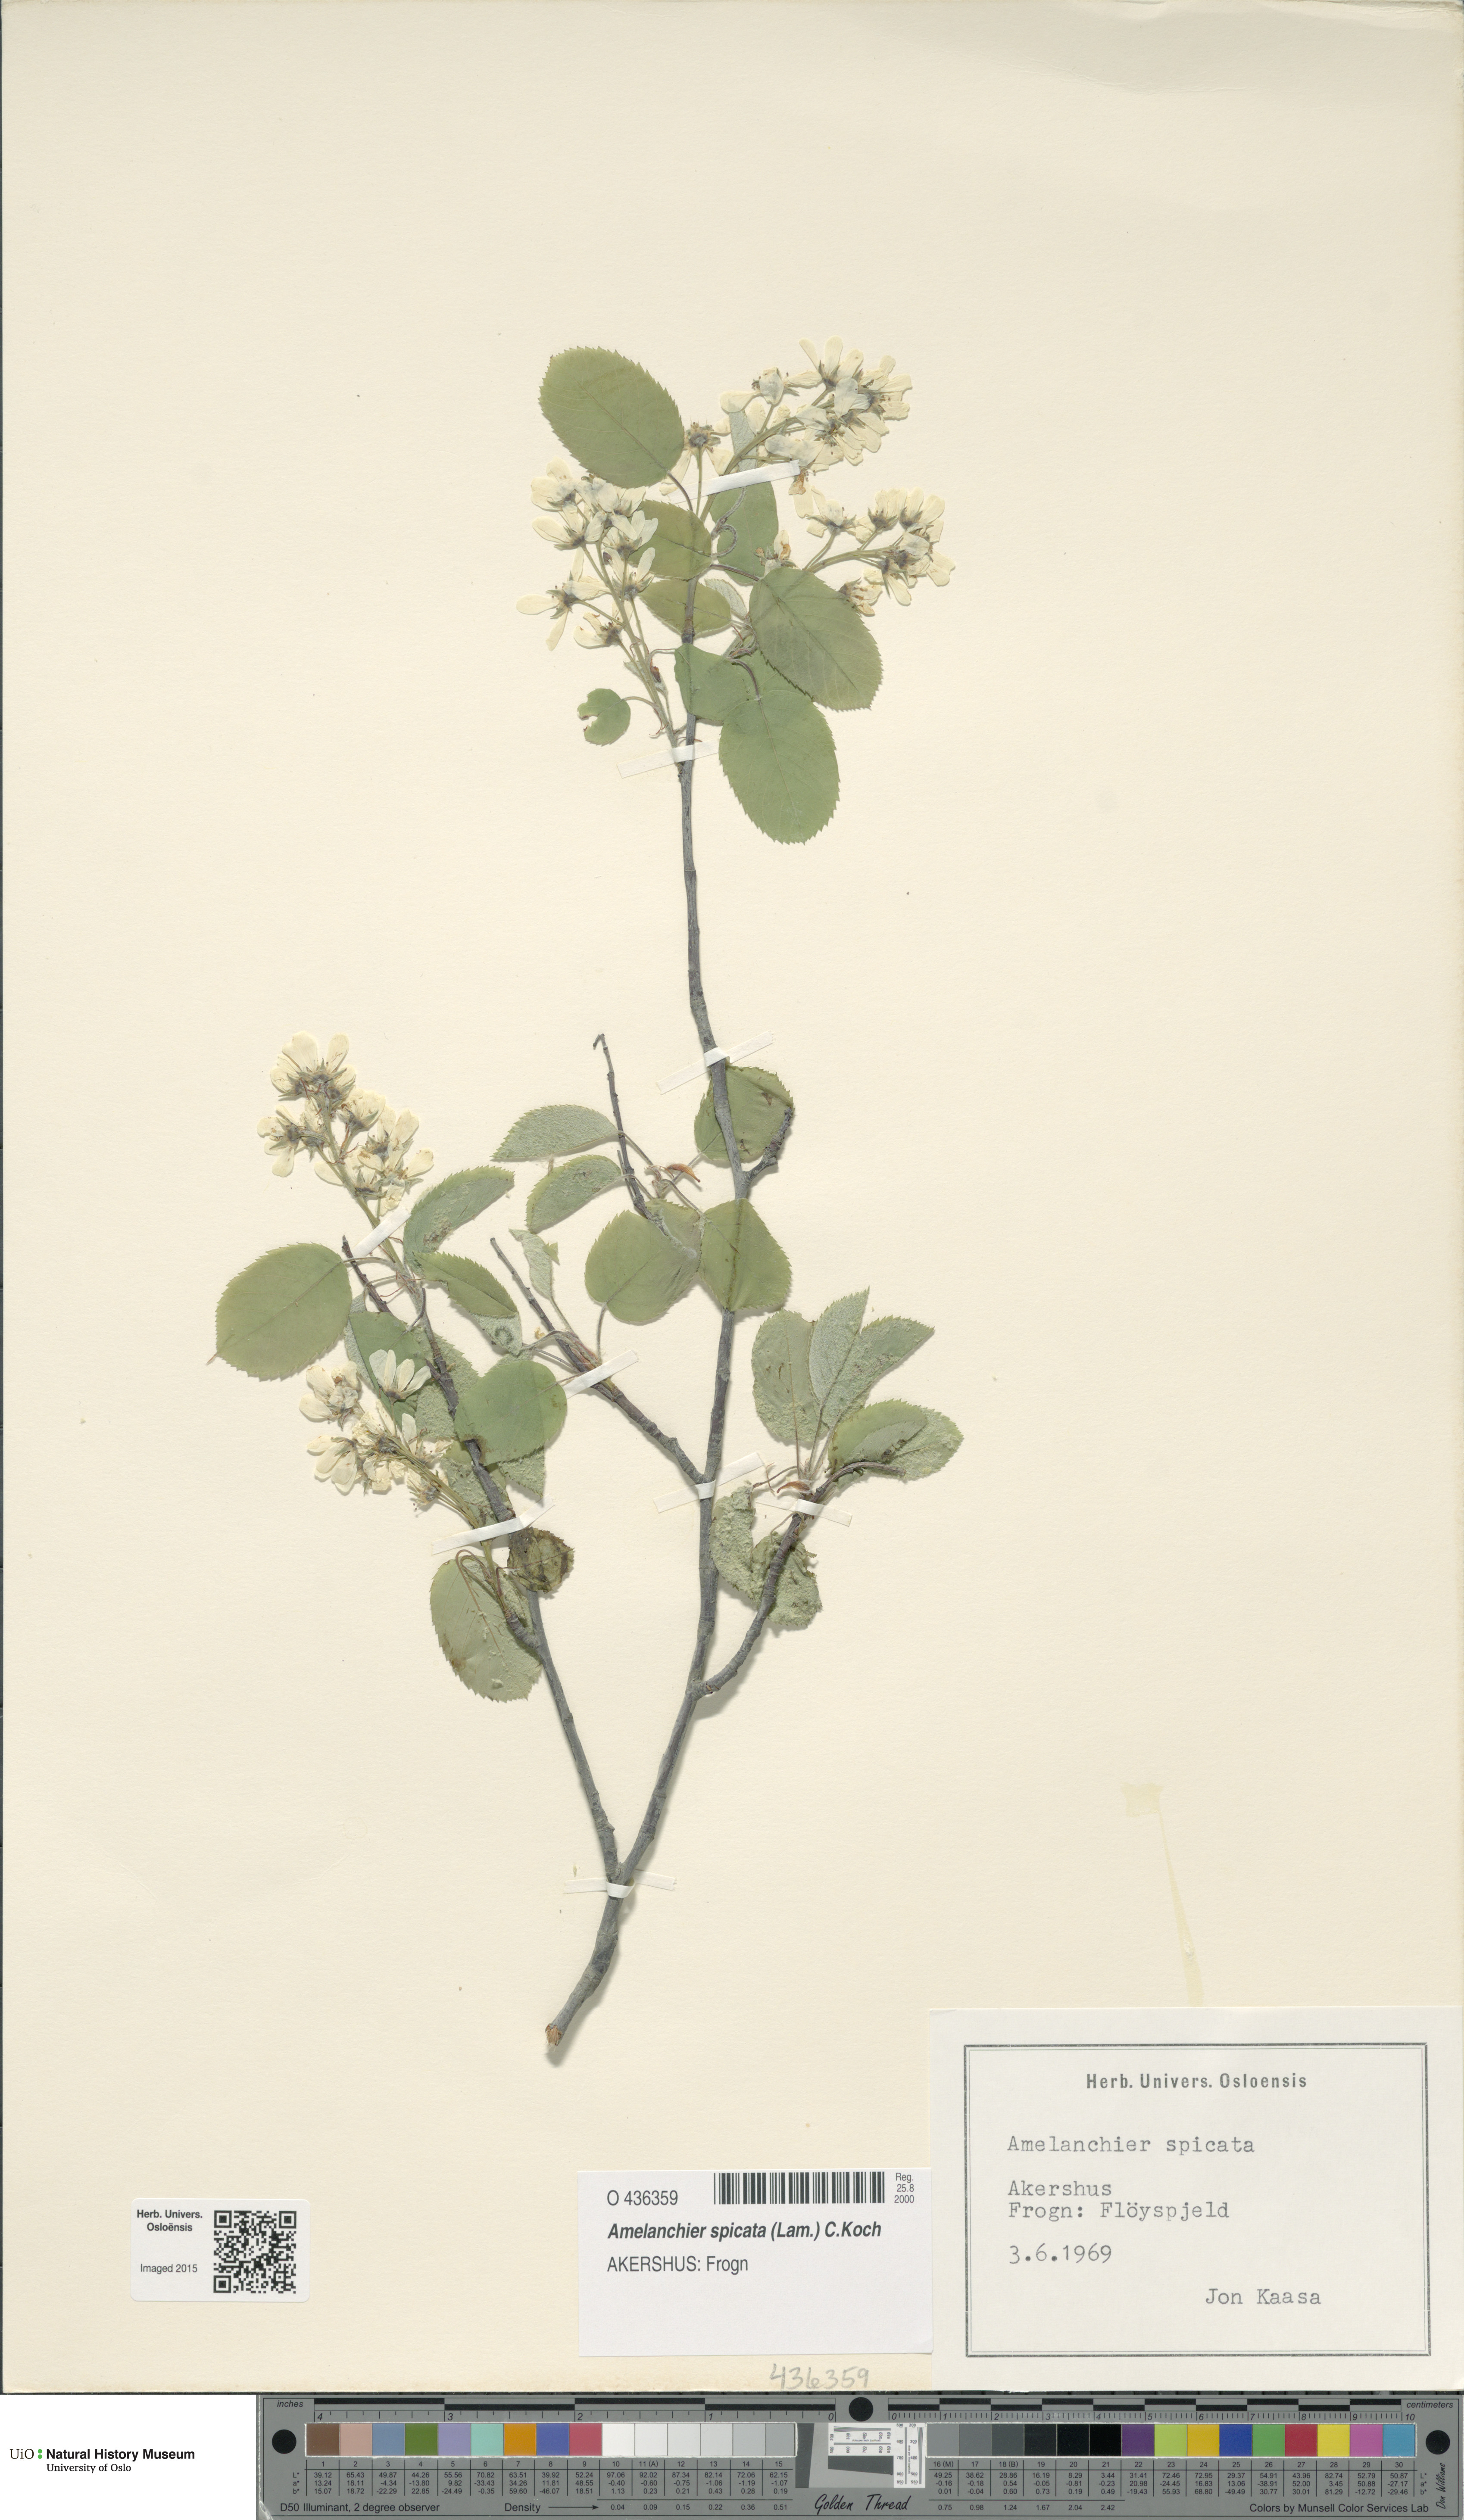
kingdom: Plantae
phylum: Tracheophyta
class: Magnoliopsida
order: Rosales
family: Rosaceae
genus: Amelanchier
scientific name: Amelanchier humilis
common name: Low juneberry
